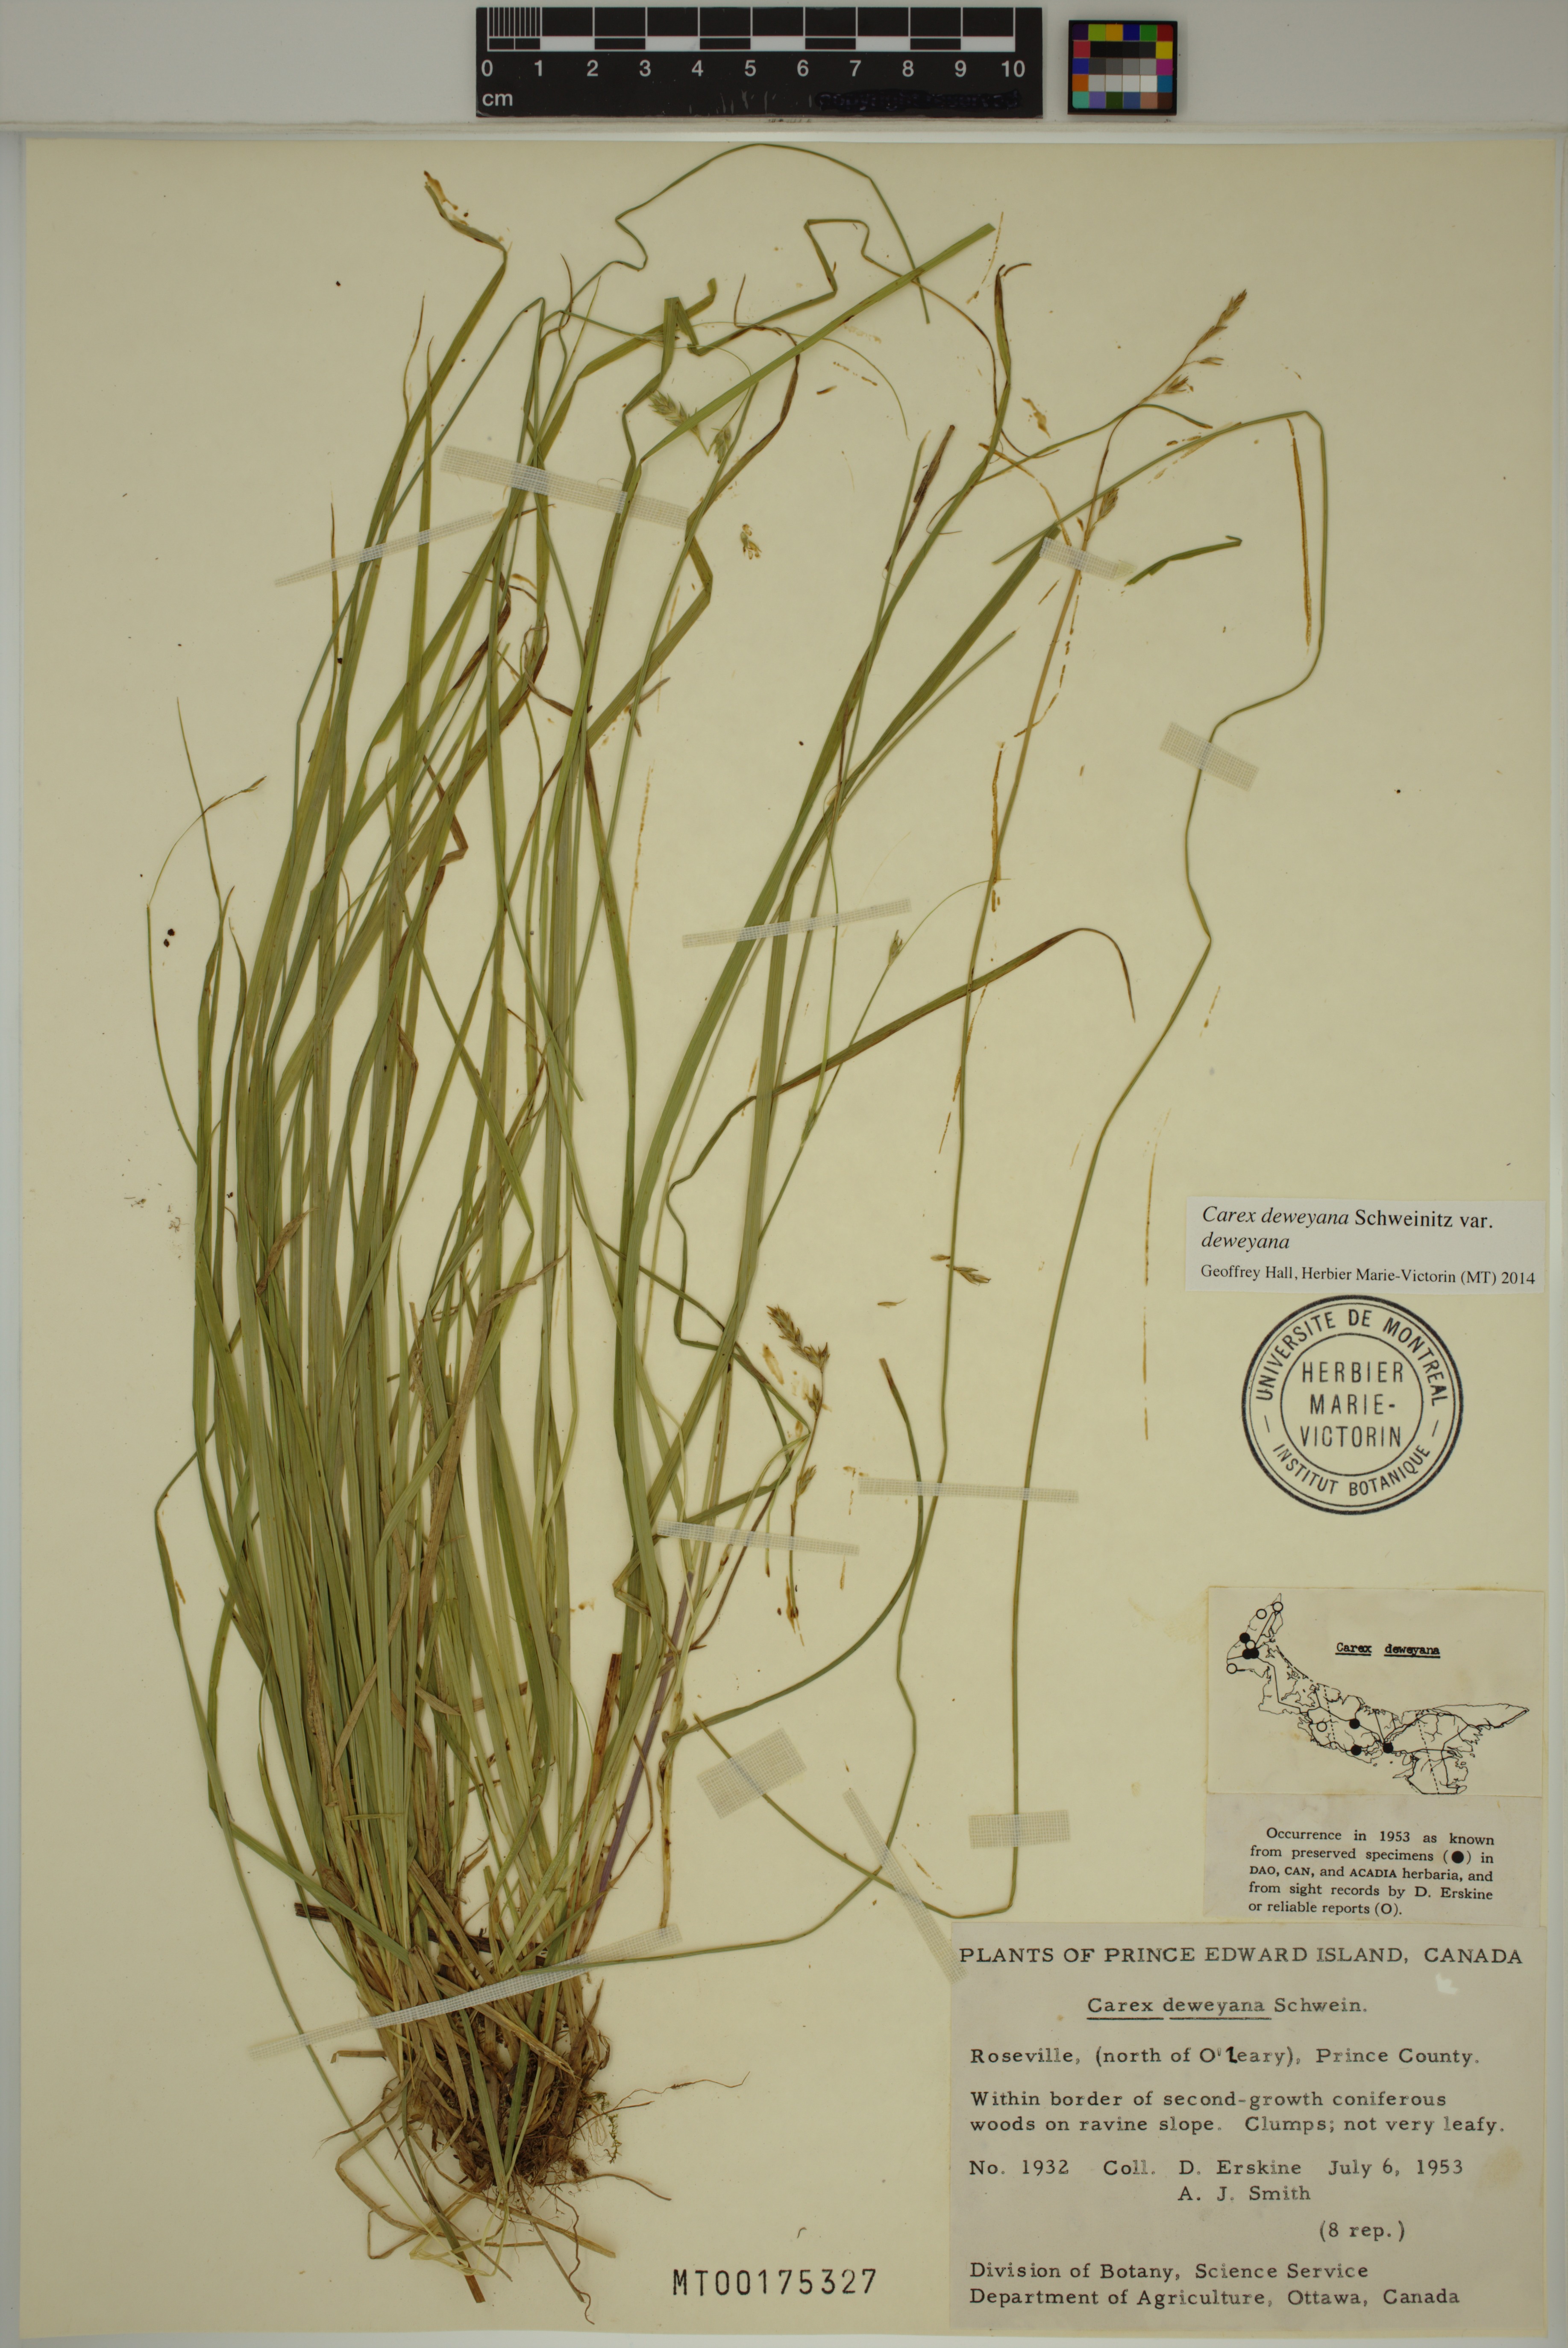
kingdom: Plantae
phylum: Tracheophyta
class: Liliopsida
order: Poales
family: Cyperaceae
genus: Carex
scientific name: Carex deweyana
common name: Dewey's sedge
